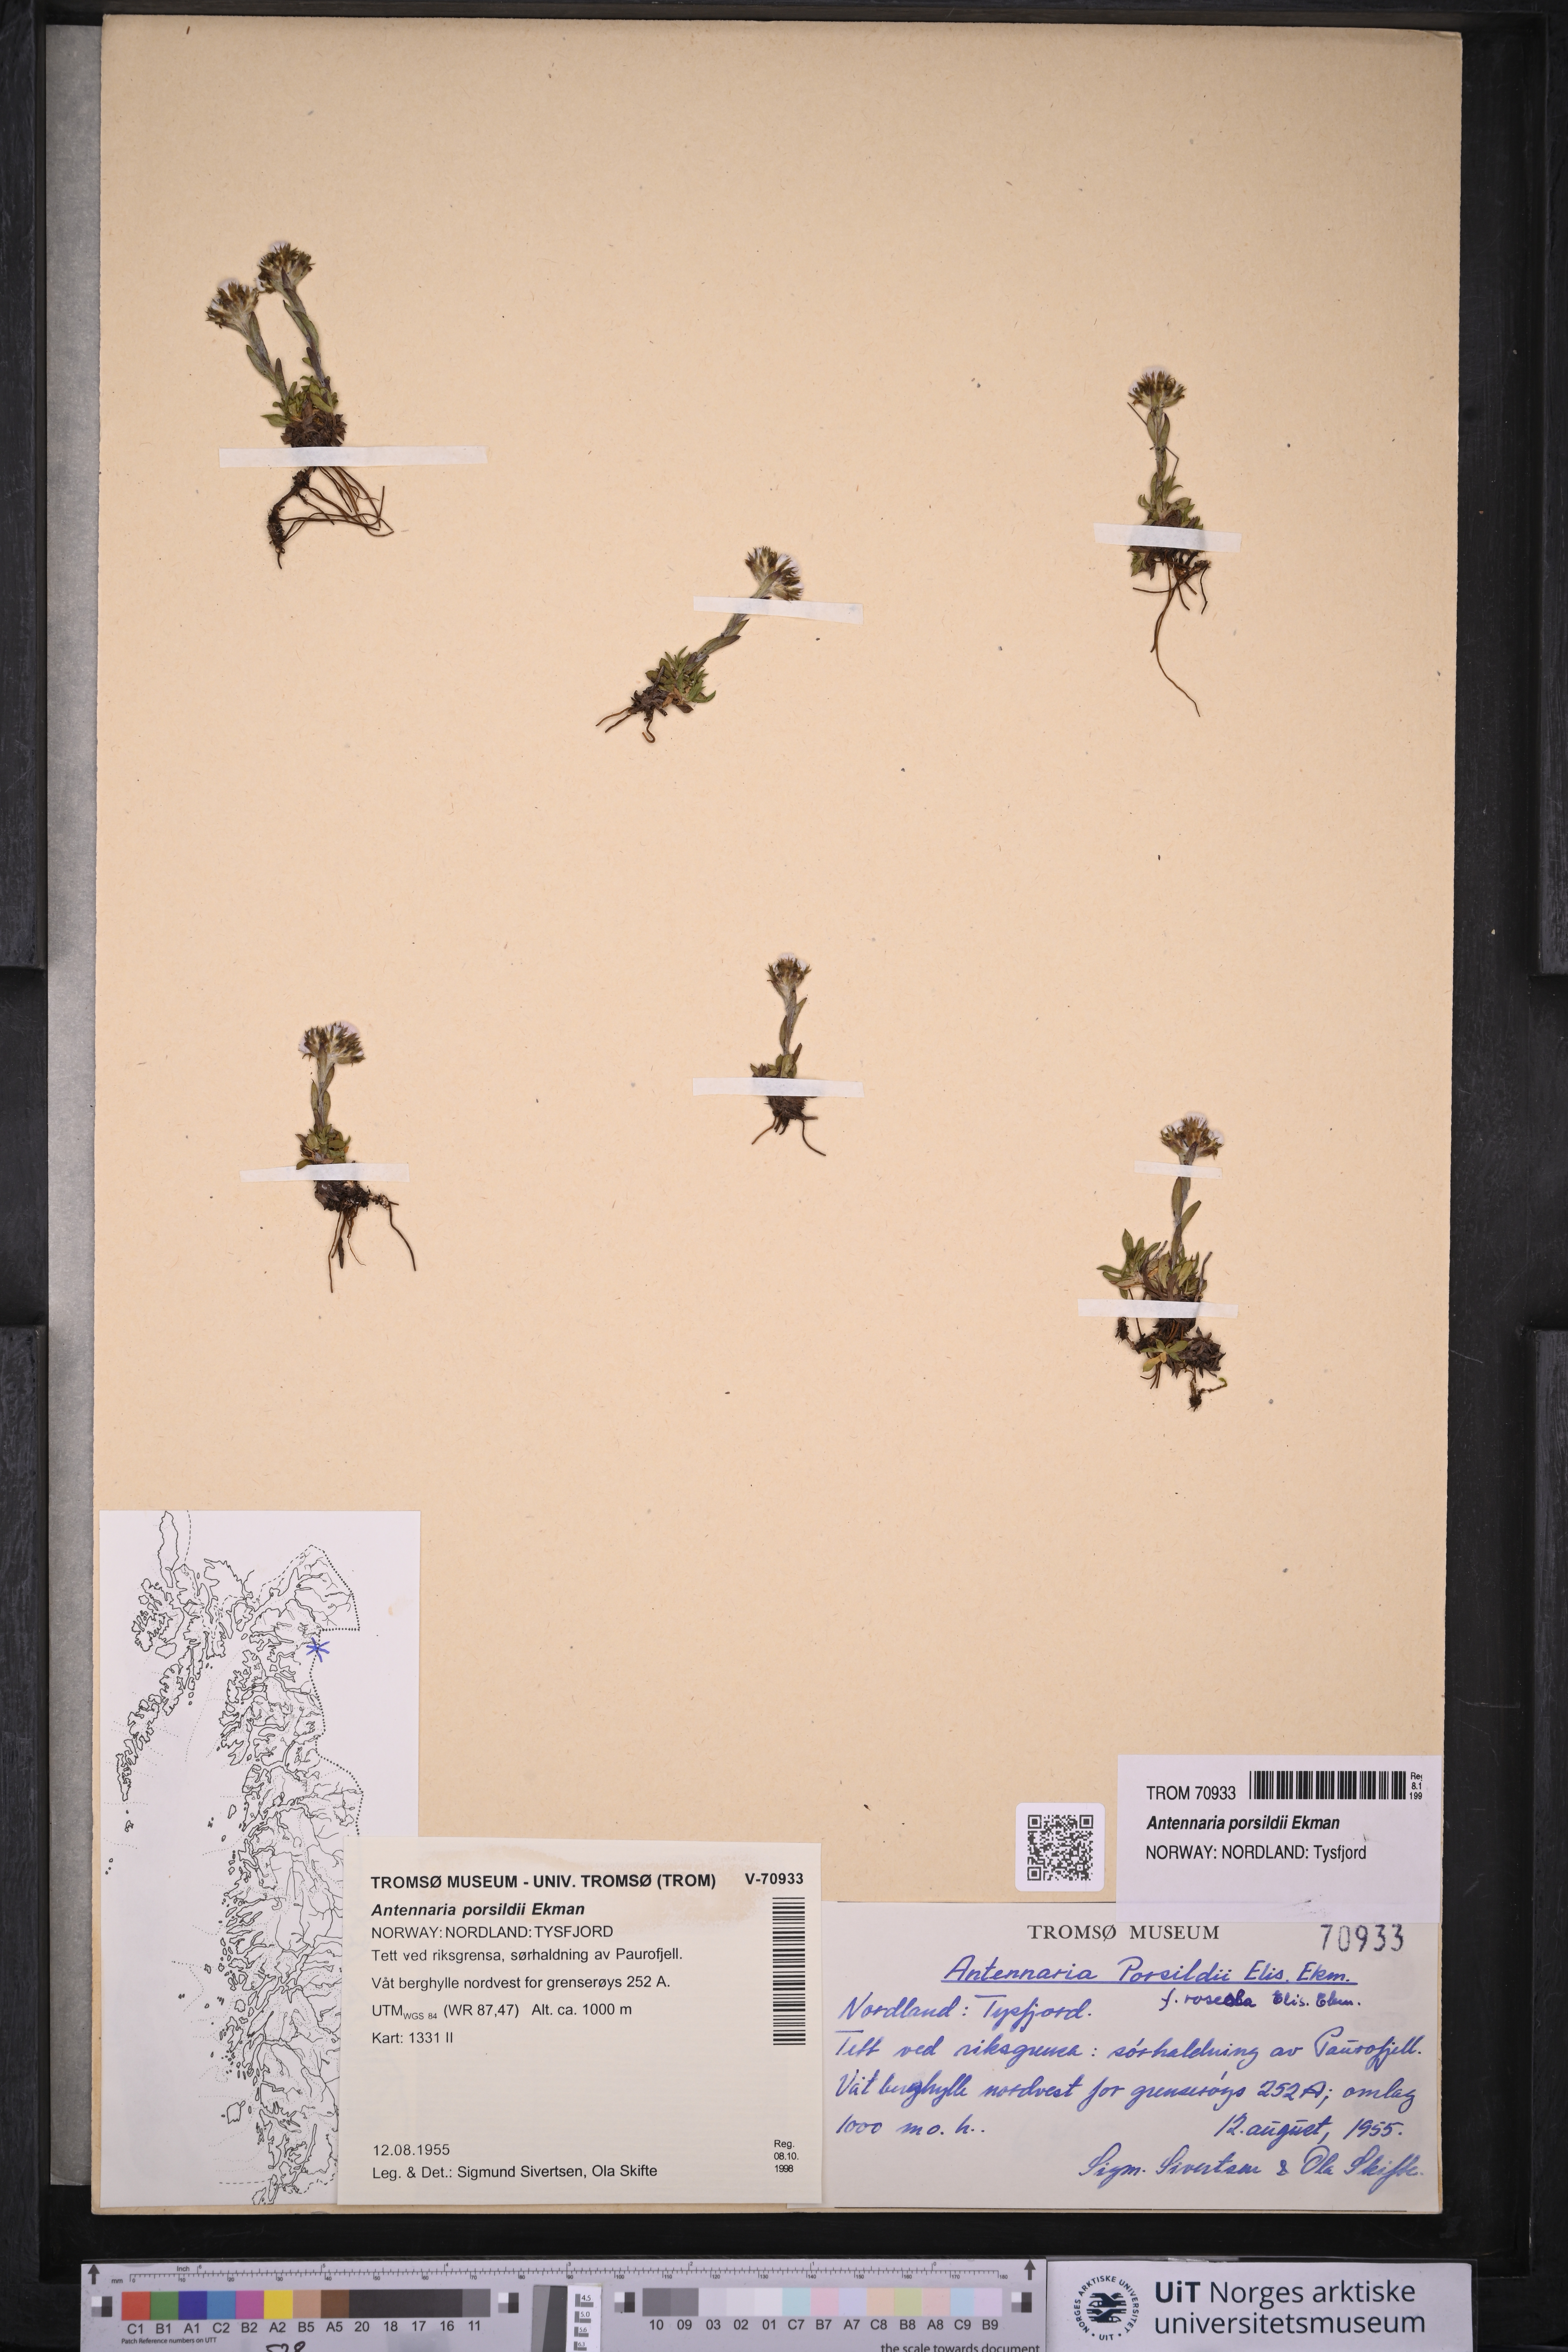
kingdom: Plantae
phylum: Tracheophyta
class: Magnoliopsida
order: Asterales
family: Asteraceae
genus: Antennaria
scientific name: Antennaria porsildii
